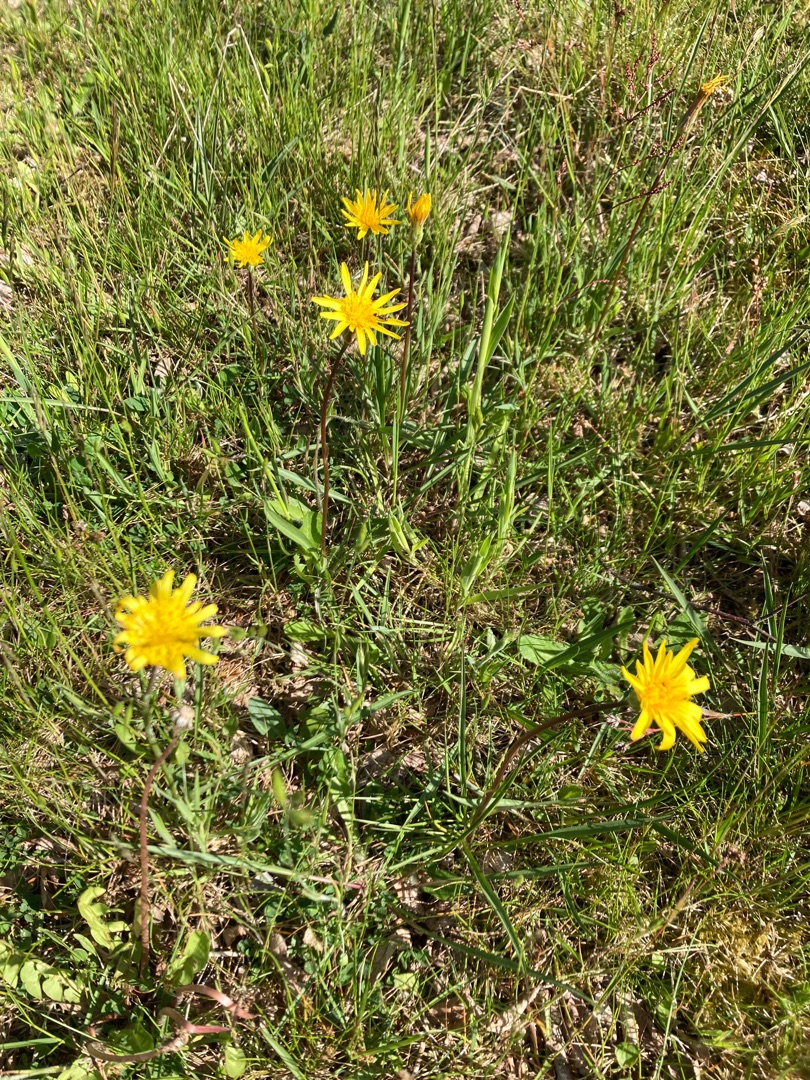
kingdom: Plantae
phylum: Tracheophyta
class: Magnoliopsida
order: Asterales
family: Asteraceae
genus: Scorzonera
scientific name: Scorzonera humilis
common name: Lav skorsoner
